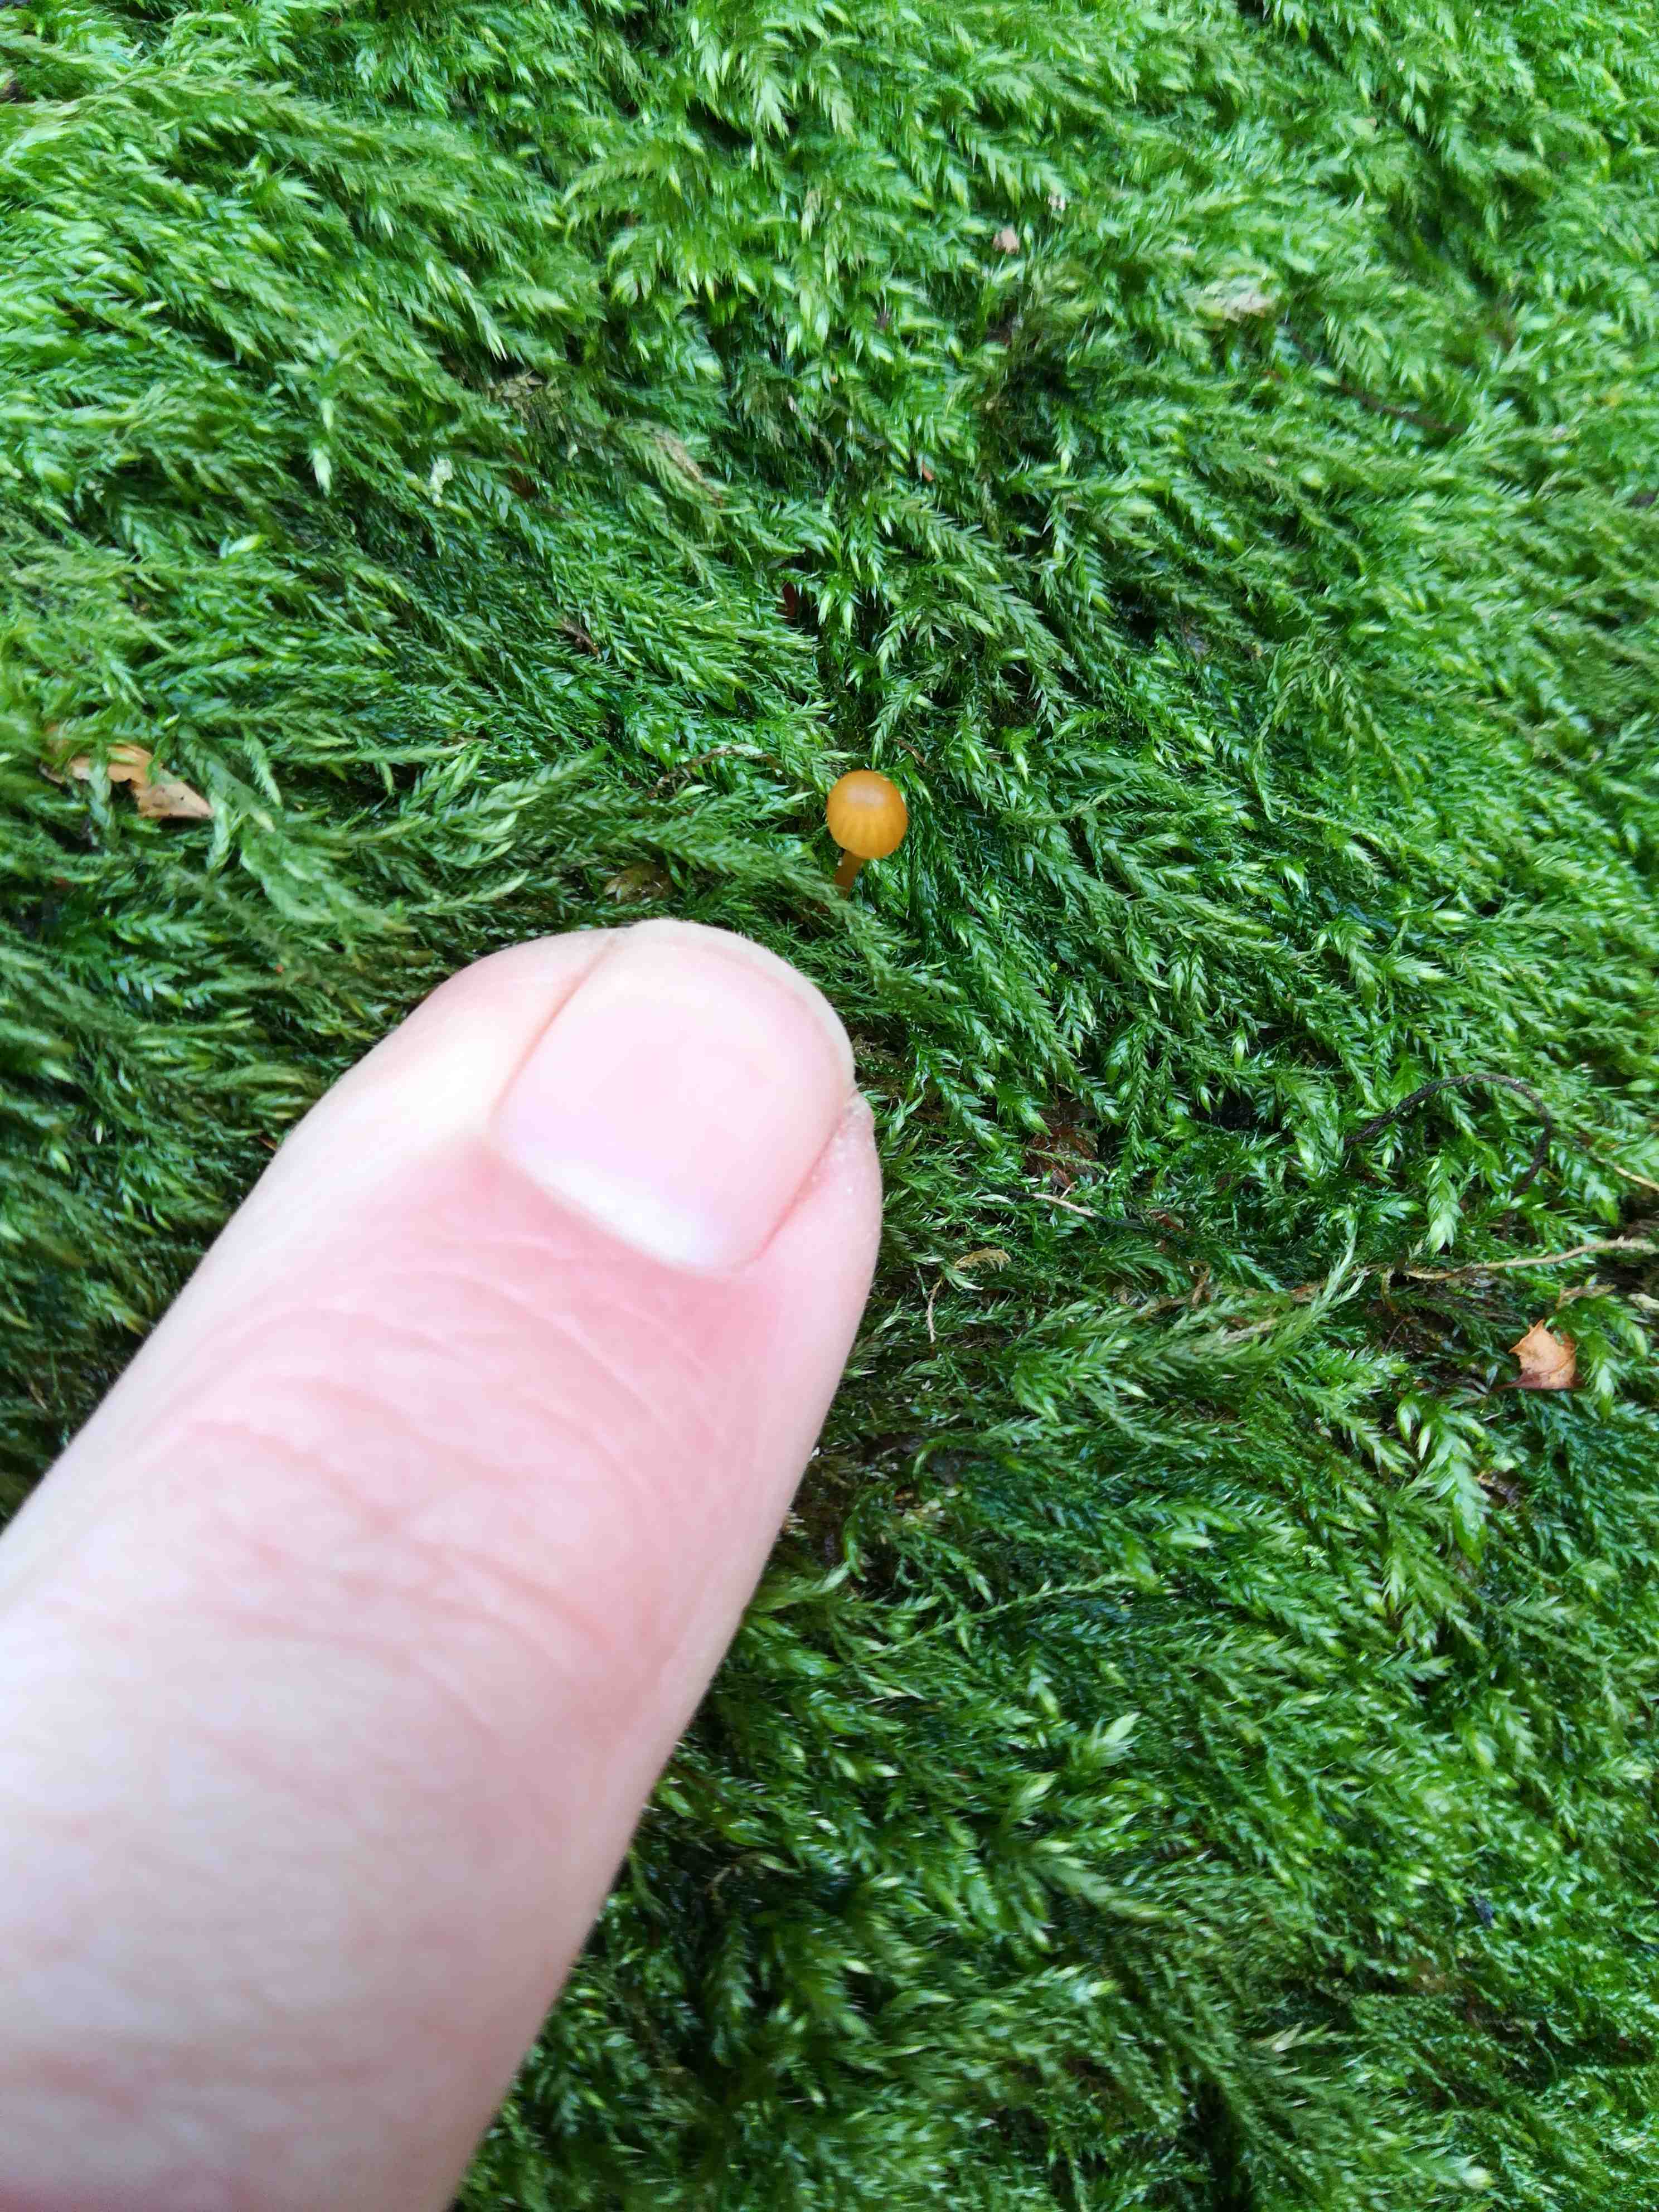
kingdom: Fungi
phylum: Basidiomycota
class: Agaricomycetes
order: Agaricales
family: Hymenogastraceae
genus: Galerina
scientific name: Galerina
